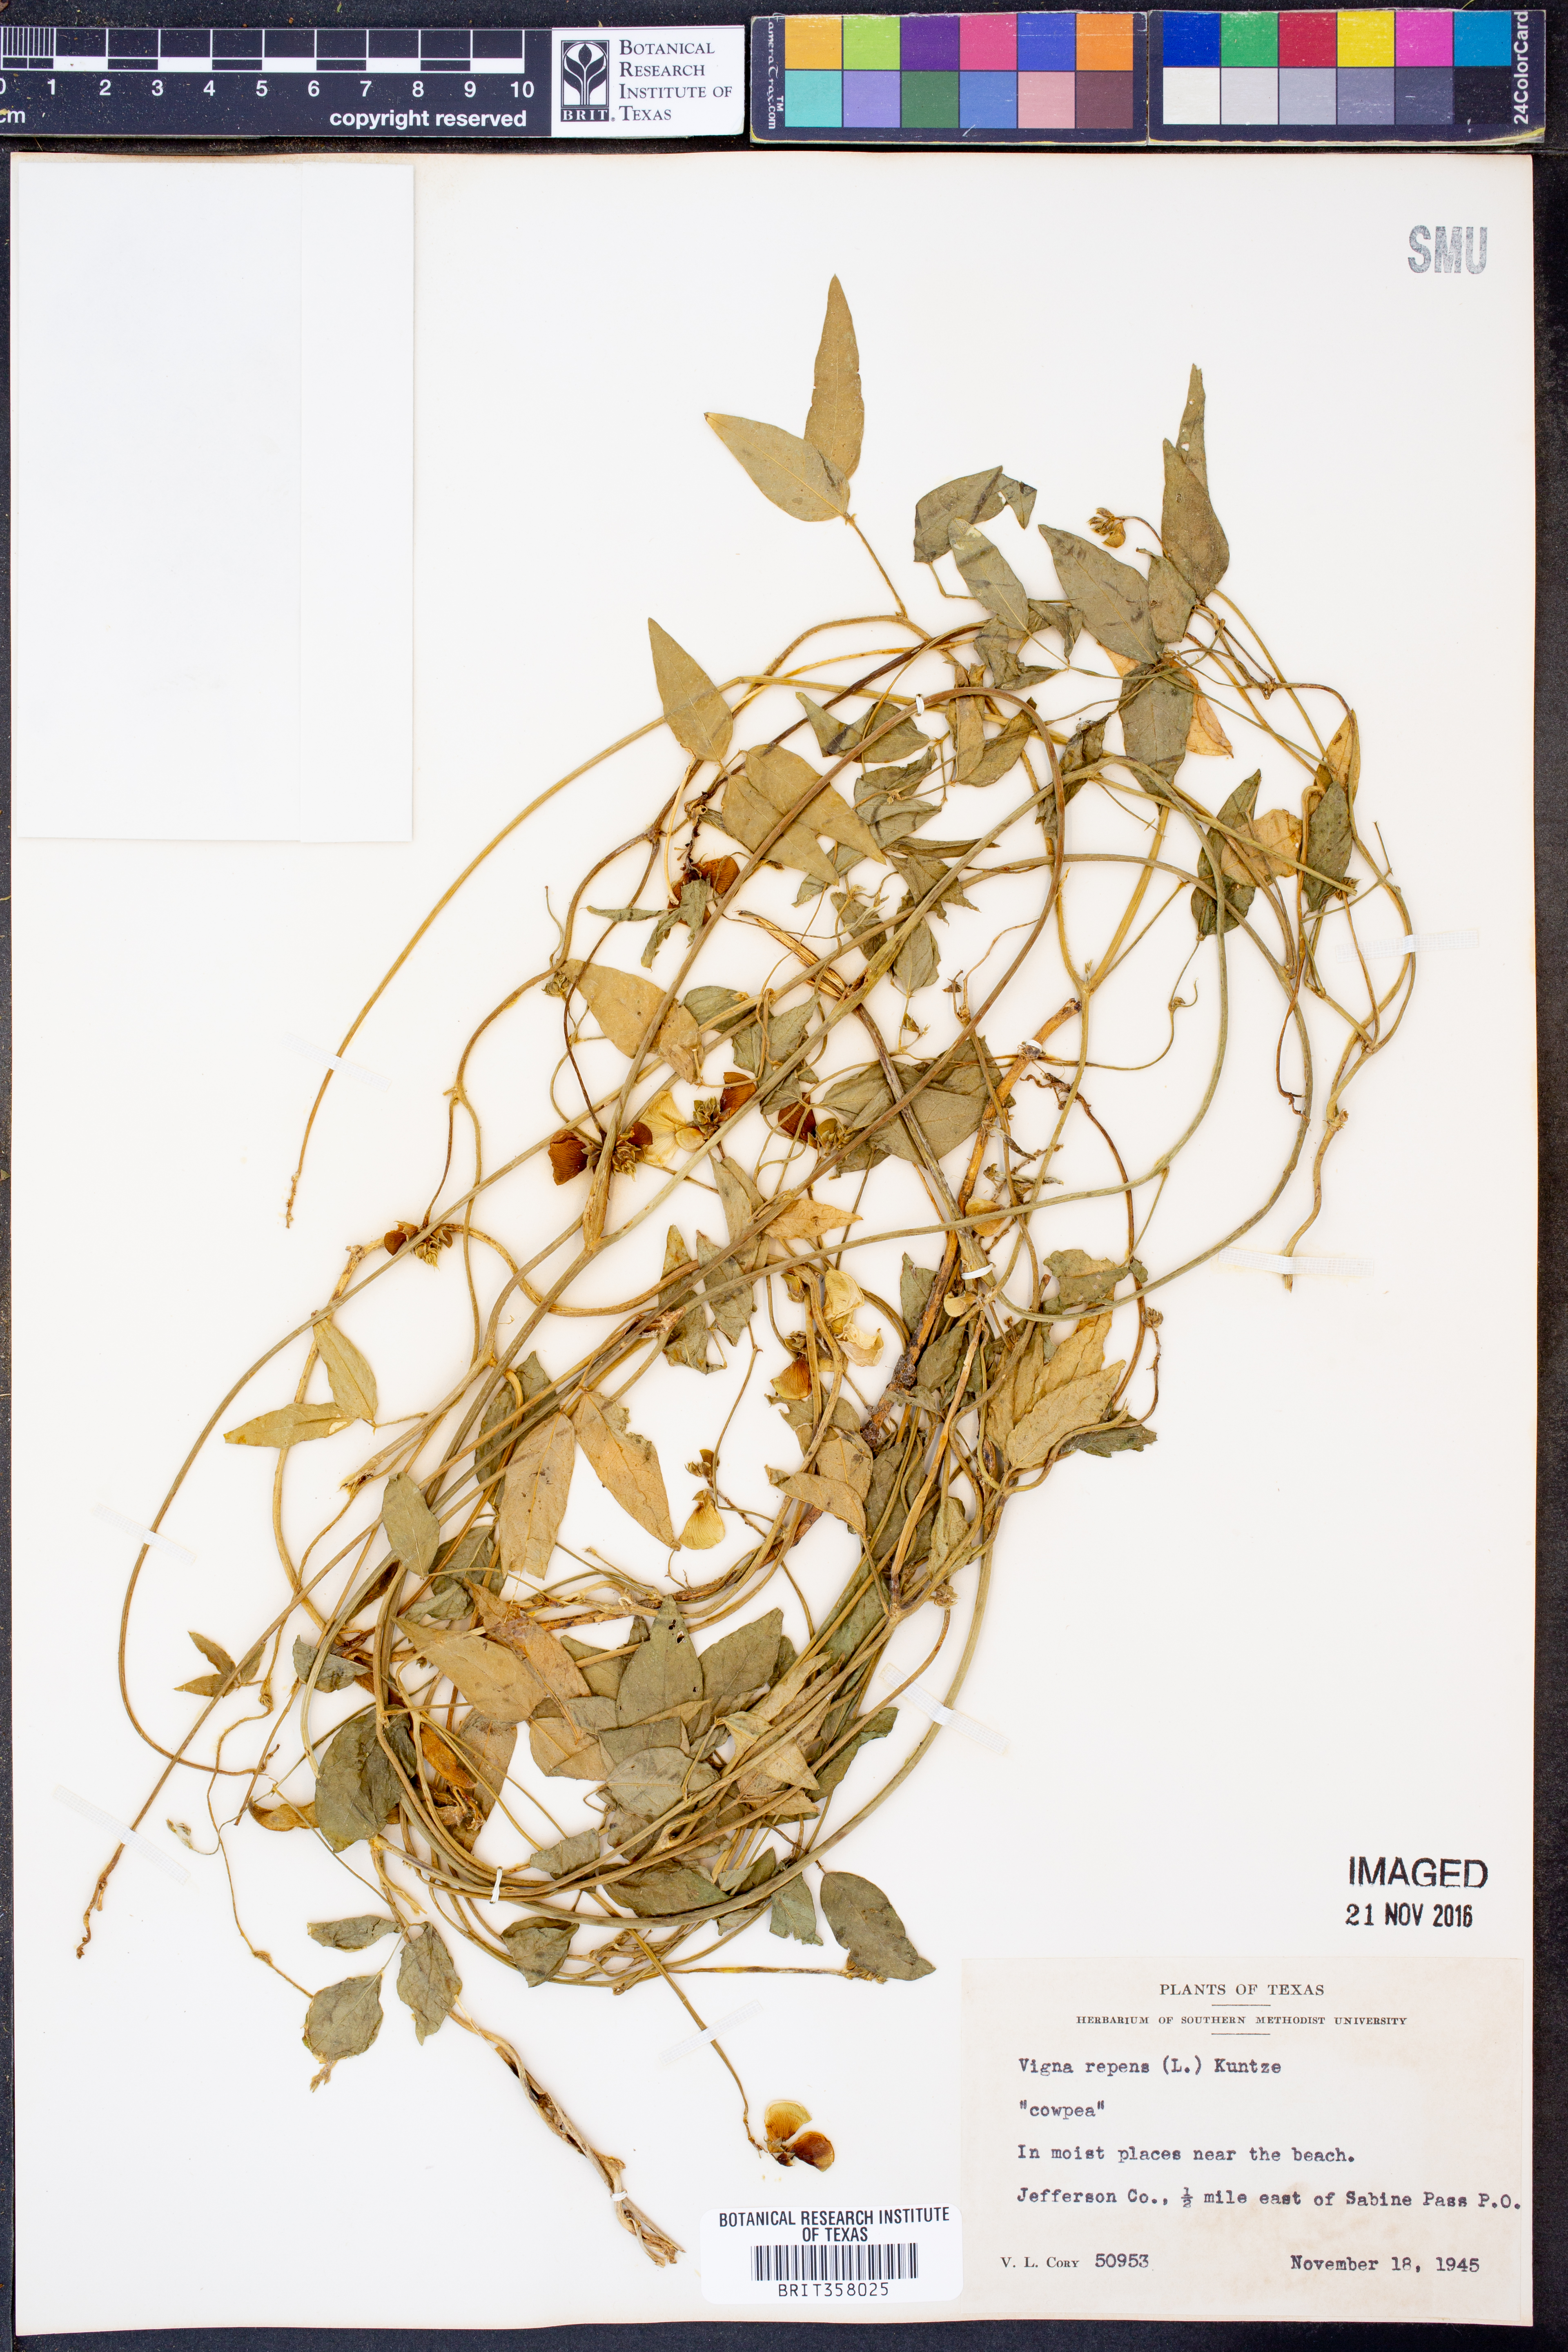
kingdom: Plantae
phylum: Tracheophyta
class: Magnoliopsida
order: Fabales
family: Fabaceae
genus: Vigna
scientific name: Vigna luteola
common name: Hairypod cowpea
